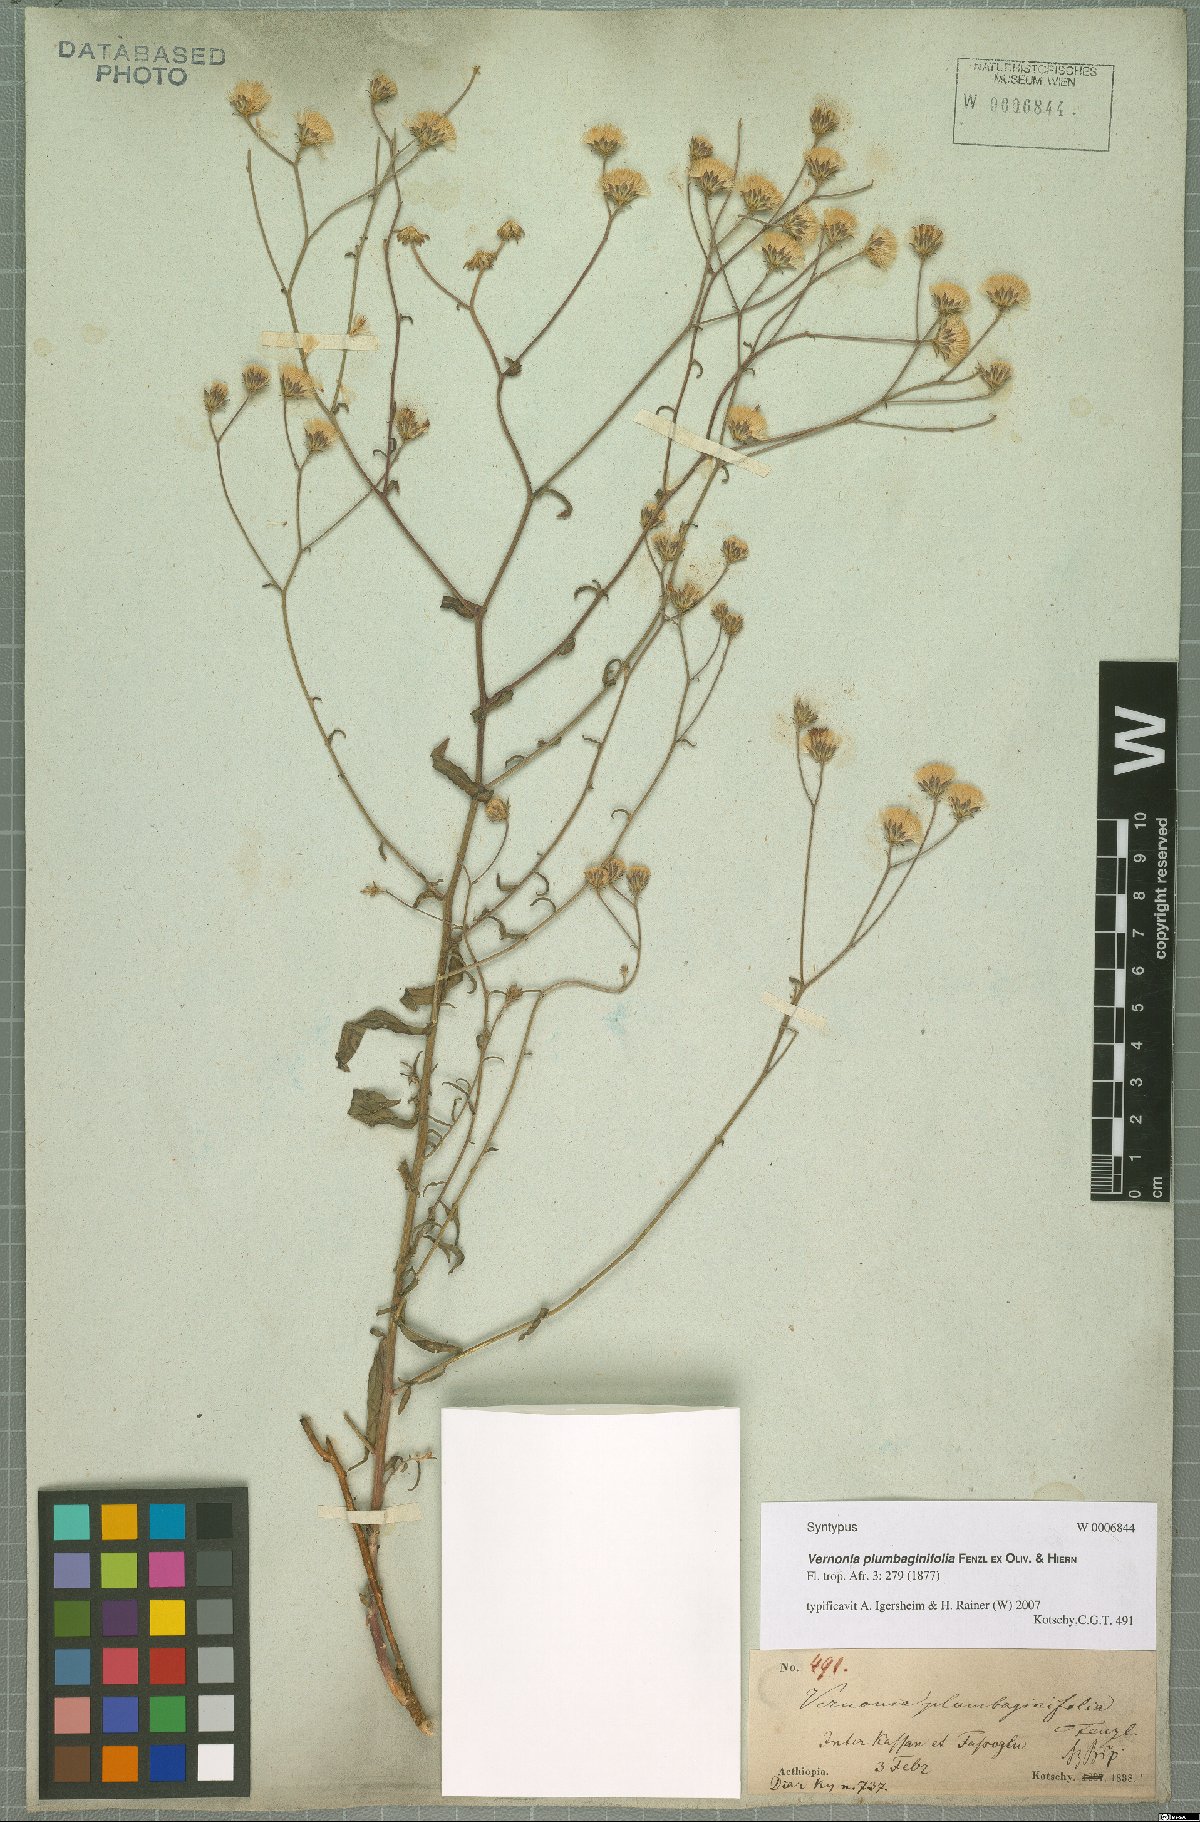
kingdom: Plantae
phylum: Tracheophyta
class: Magnoliopsida
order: Asterales
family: Asteraceae
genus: Vernonia
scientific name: Vernonia plumbaginifolia
